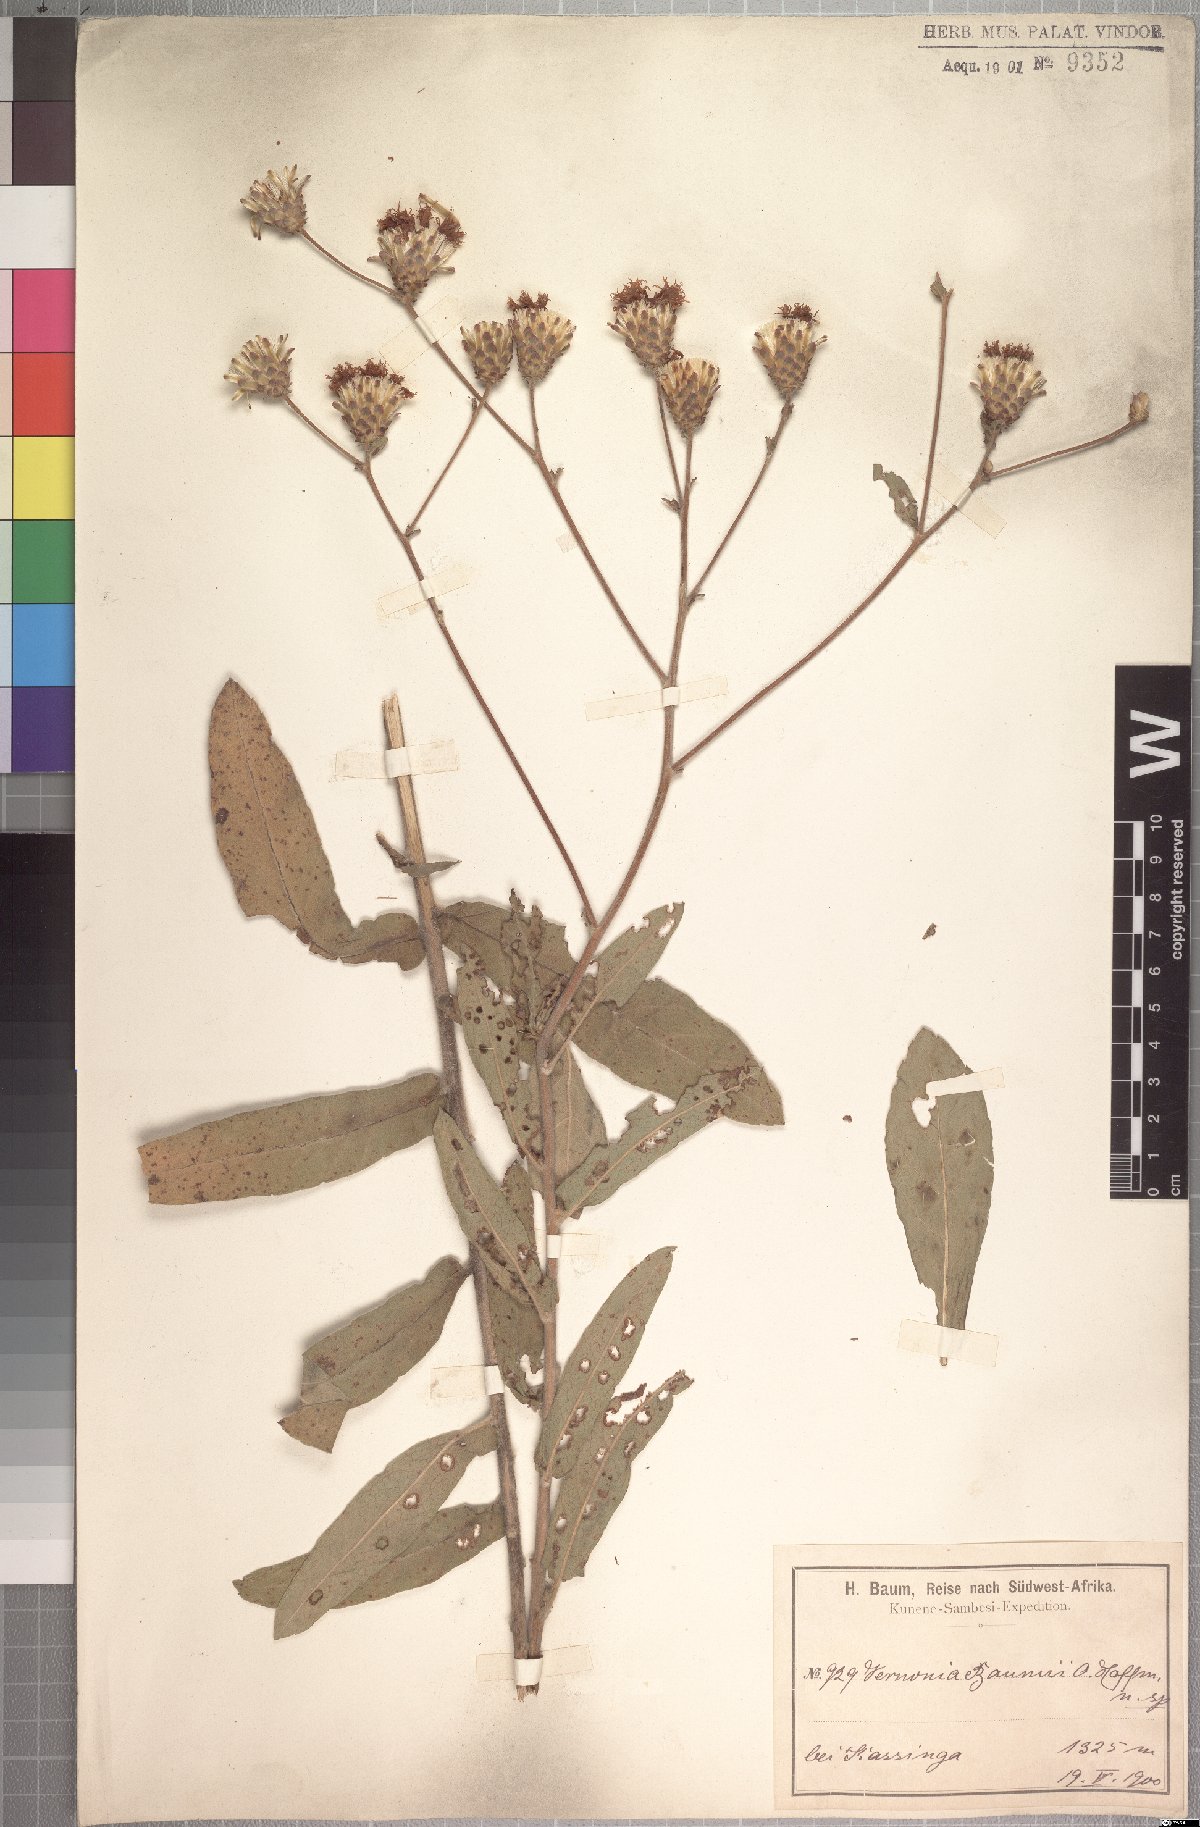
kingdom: Plantae
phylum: Tracheophyta
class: Magnoliopsida
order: Asterales
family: Asteraceae
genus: Vernonia
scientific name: Vernonia temnolepis
